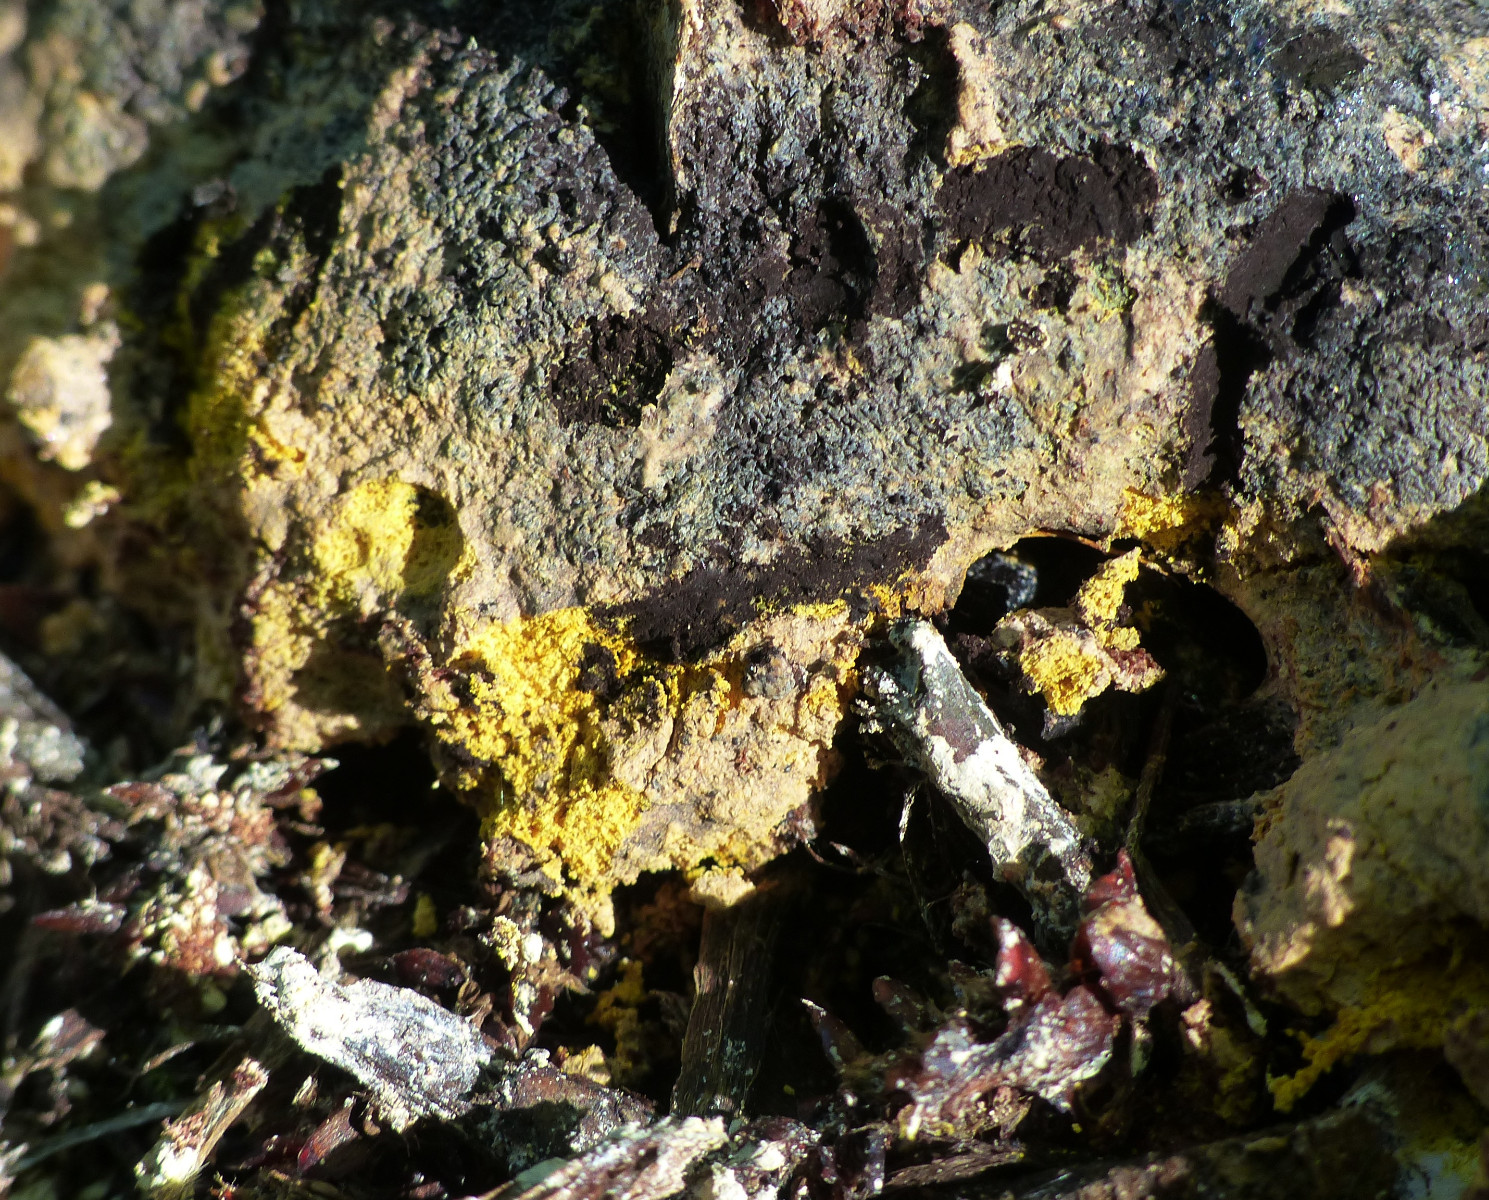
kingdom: Protozoa
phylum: Mycetozoa
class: Myxomycetes
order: Physarales
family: Physaraceae
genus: Fuligo
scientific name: Fuligo
